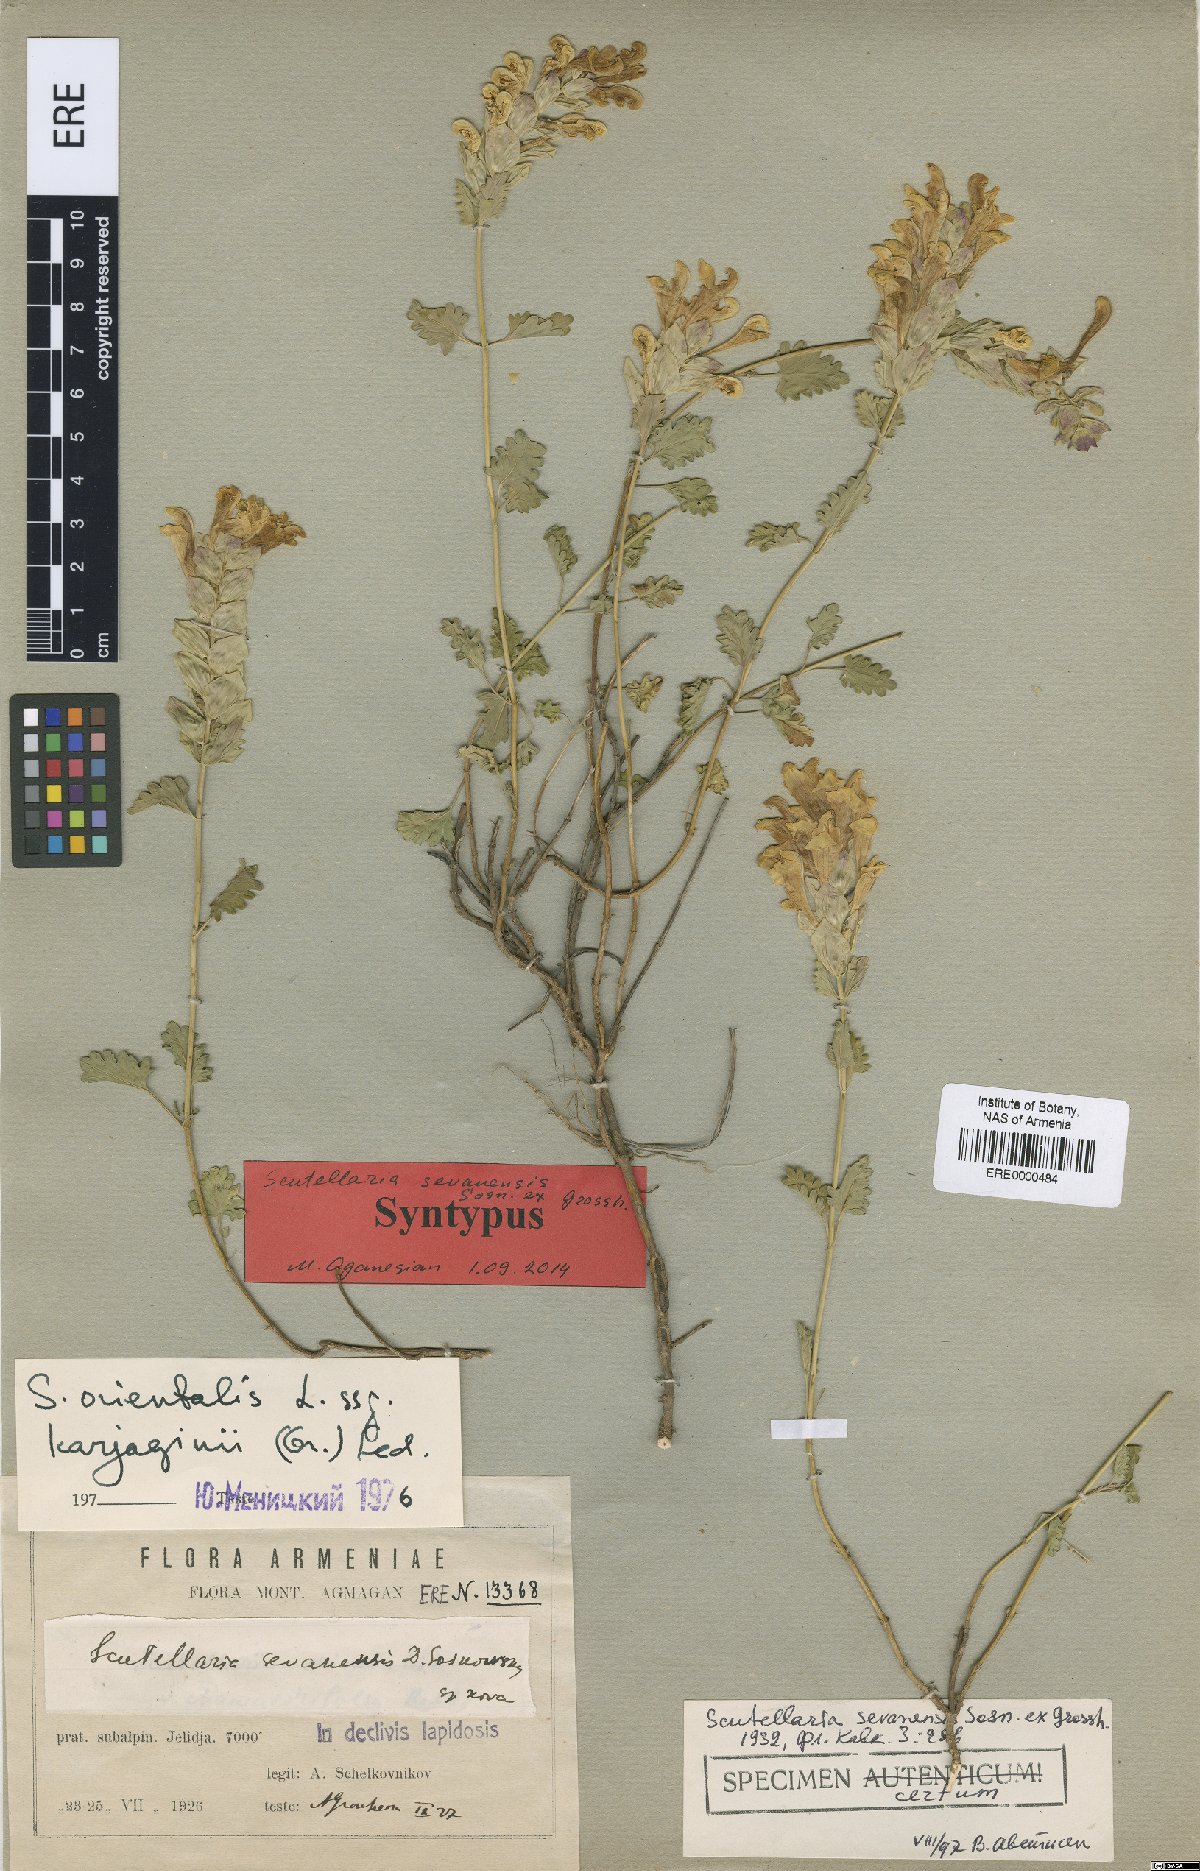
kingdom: Plantae
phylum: Tracheophyta
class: Magnoliopsida
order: Lamiales
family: Lamiaceae
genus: Scutellaria
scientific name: Scutellaria sevanensis
